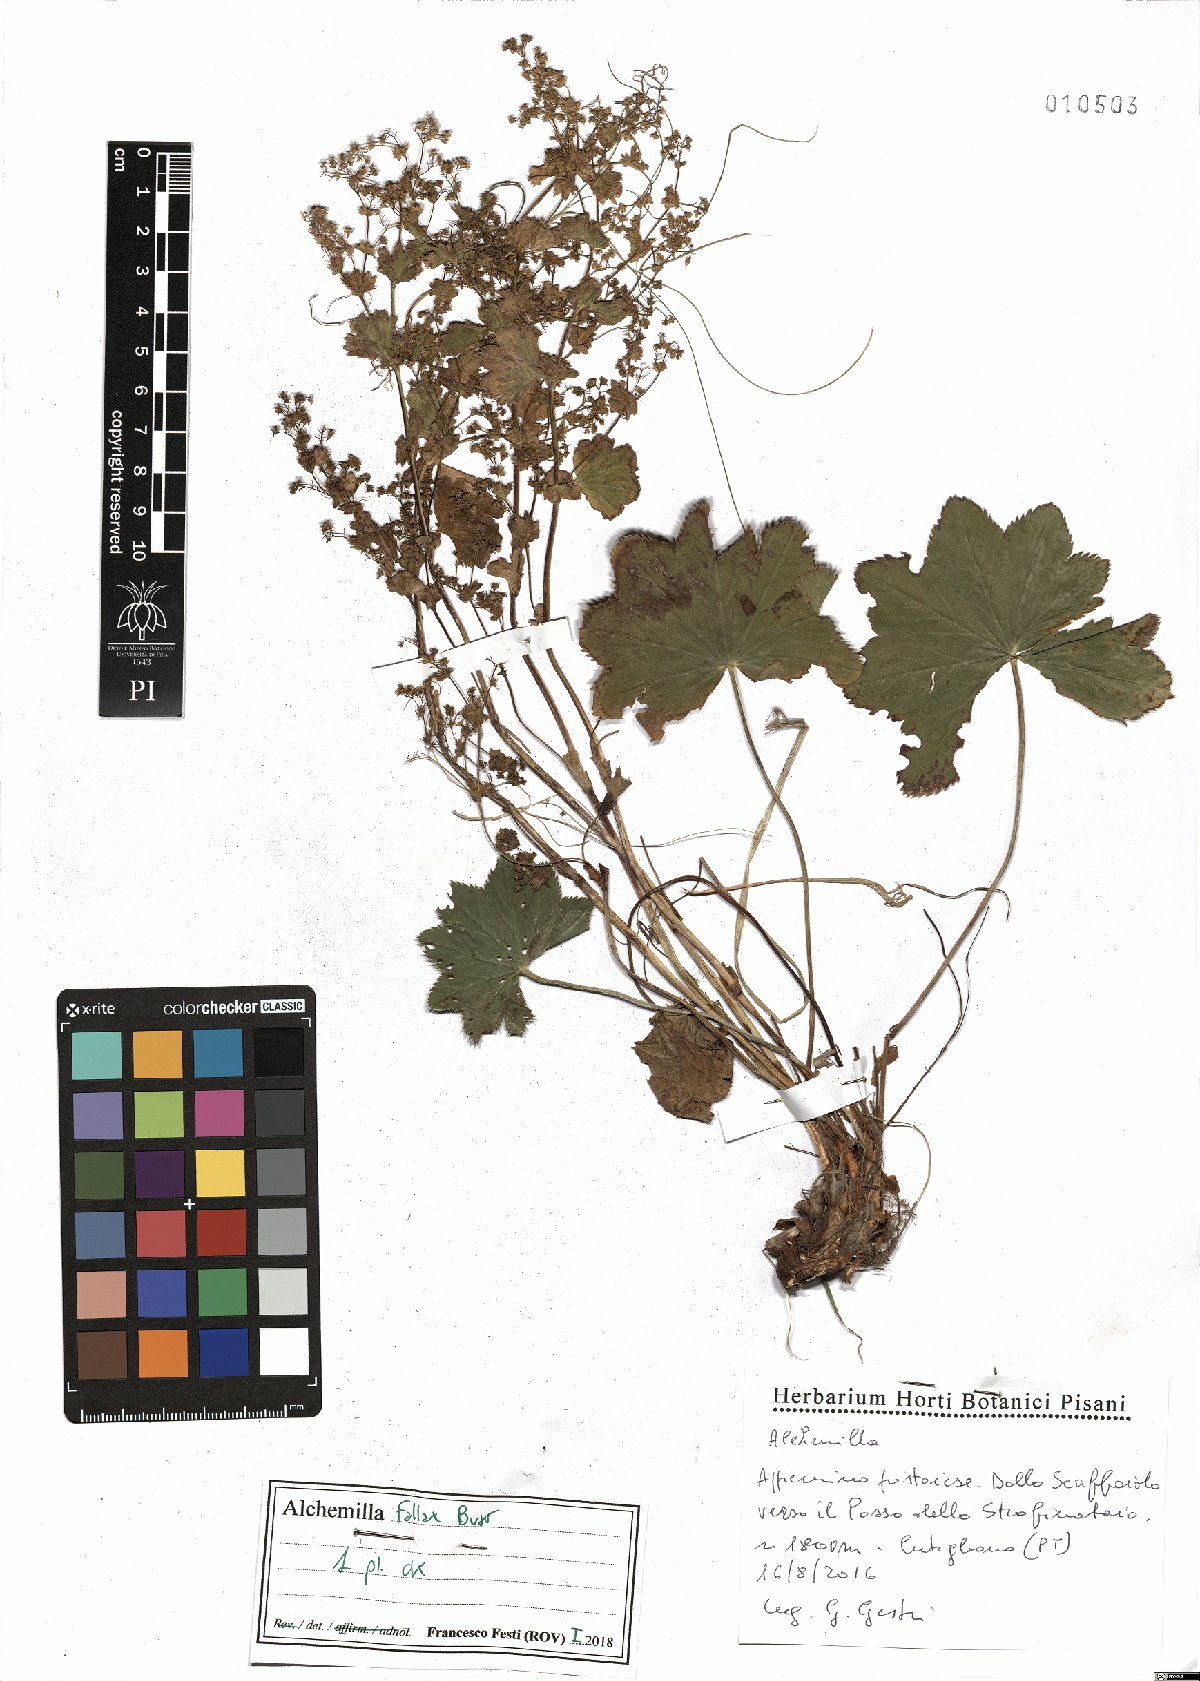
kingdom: Plantae
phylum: Tracheophyta
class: Magnoliopsida
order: Rosales
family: Rosaceae
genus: Alchemilla
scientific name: Alchemilla fallax
